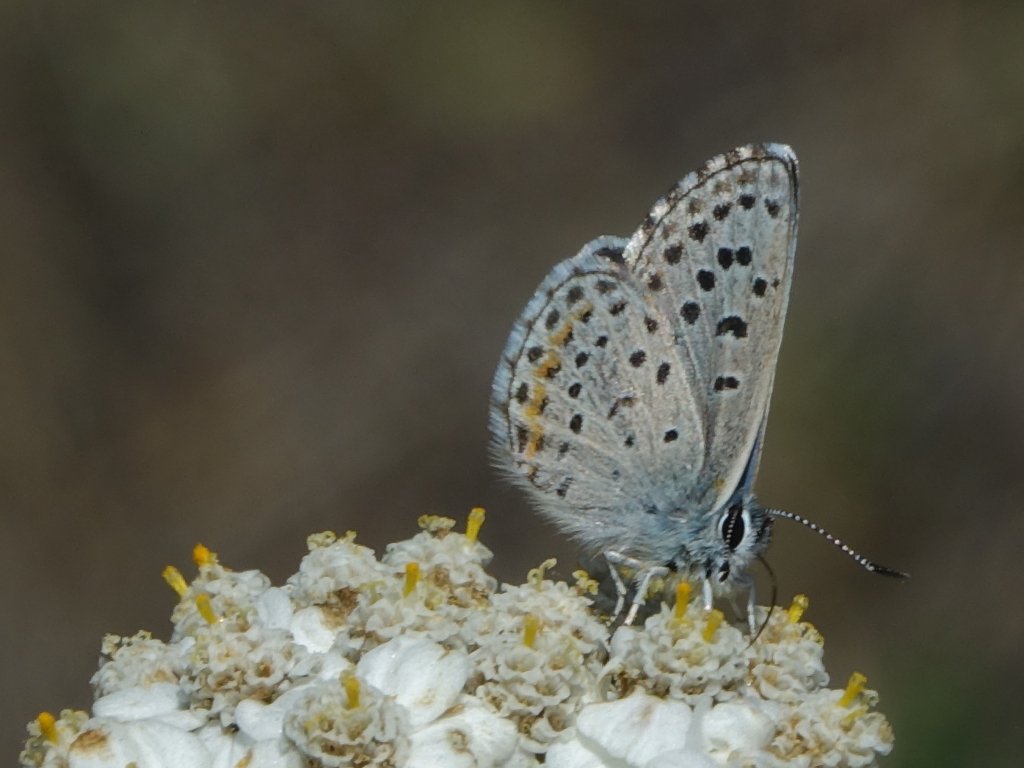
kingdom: Animalia
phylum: Arthropoda
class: Insecta
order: Lepidoptera
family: Lycaenidae
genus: Euphilotes
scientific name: Euphilotes enoptes
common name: Dotted Blue
